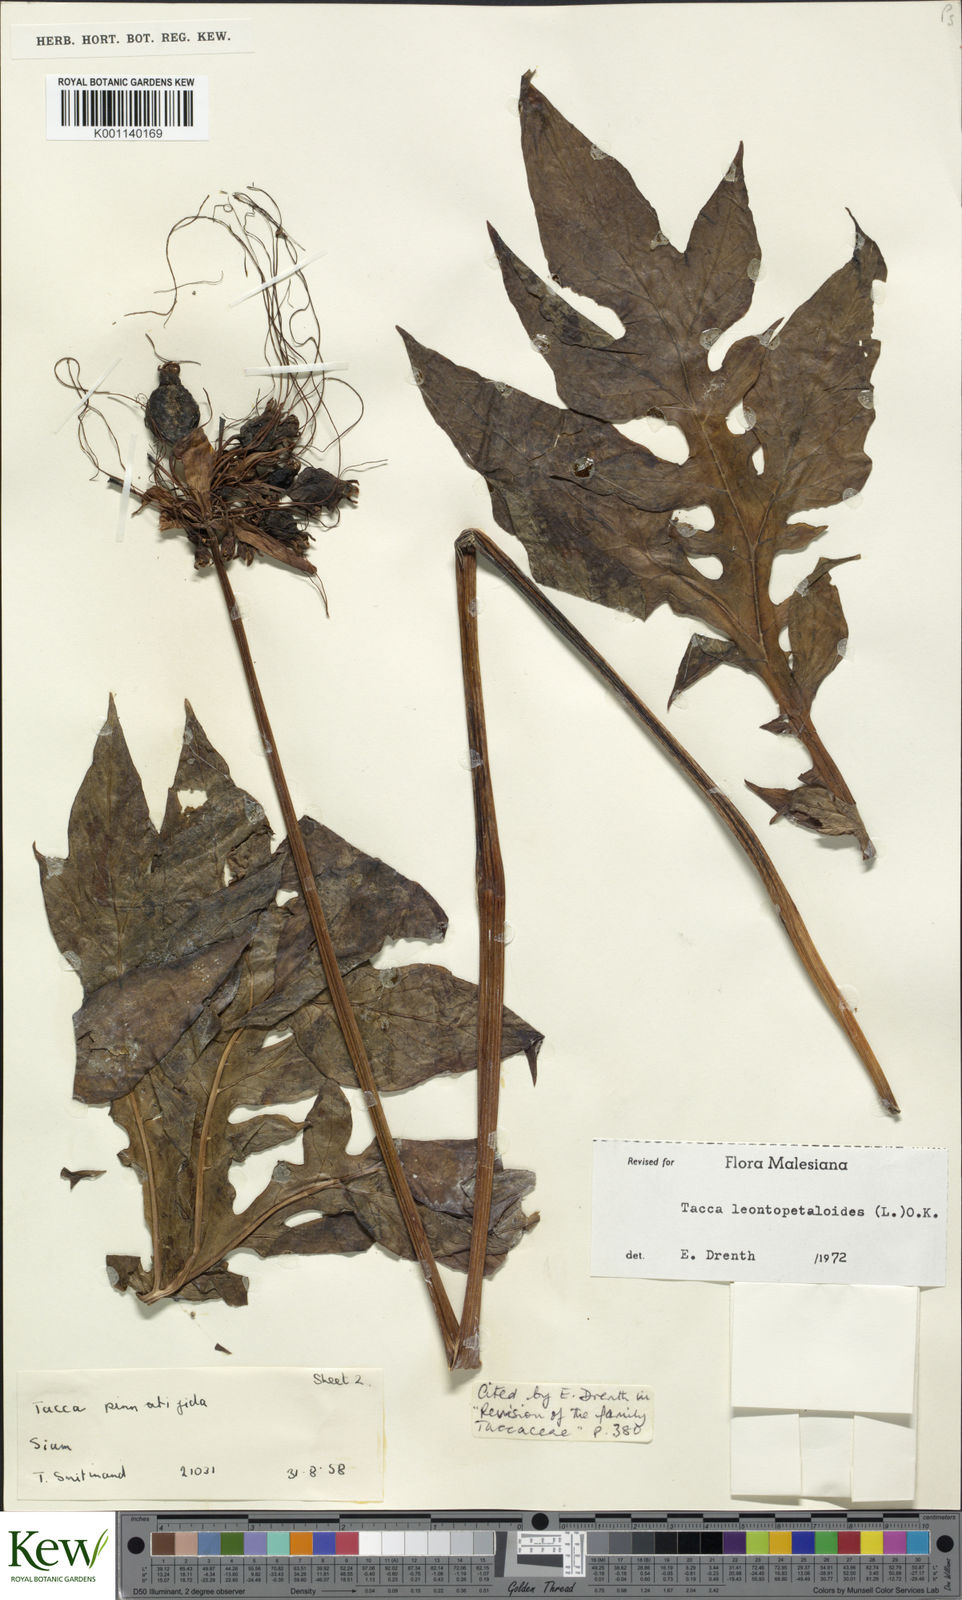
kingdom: Plantae
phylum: Tracheophyta
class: Liliopsida
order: Dioscoreales
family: Dioscoreaceae
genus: Tacca
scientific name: Tacca leontopetaloides
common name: Arrowroot
